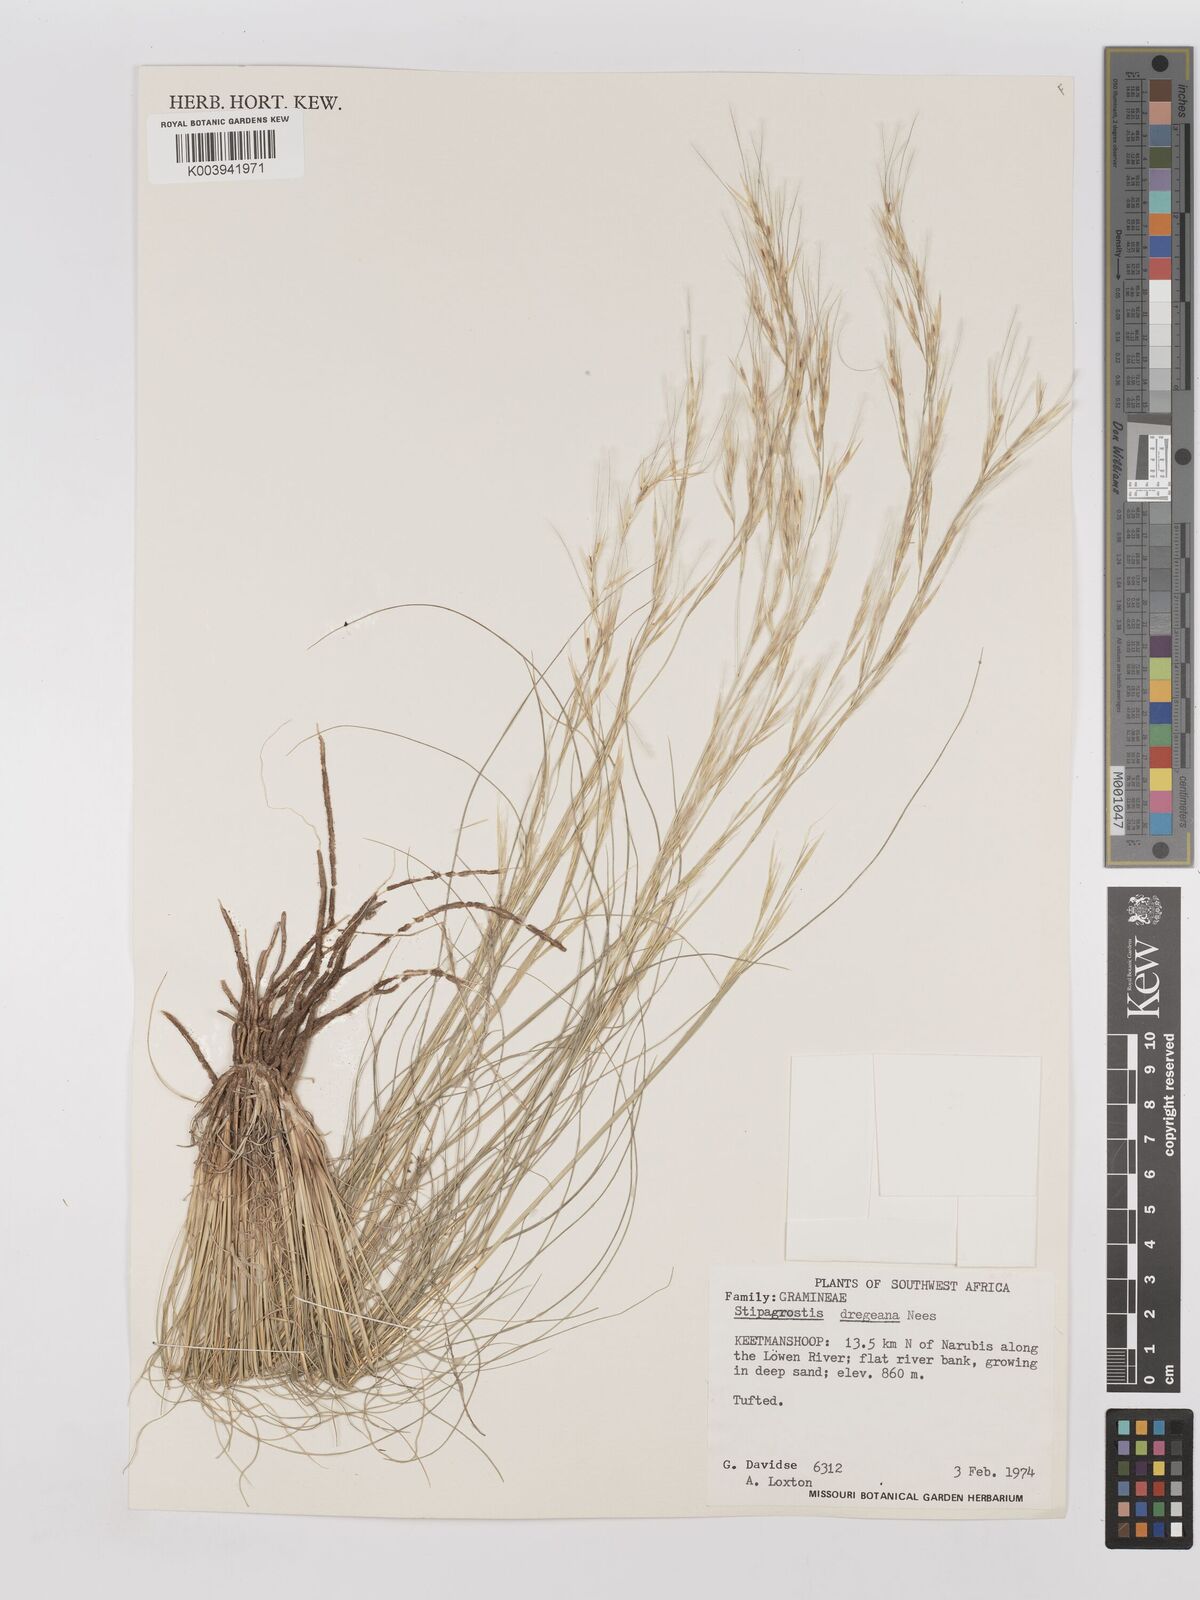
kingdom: Plantae
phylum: Tracheophyta
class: Liliopsida
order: Poales
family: Poaceae
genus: Stipagrostis
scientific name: Stipagrostis dregeana
